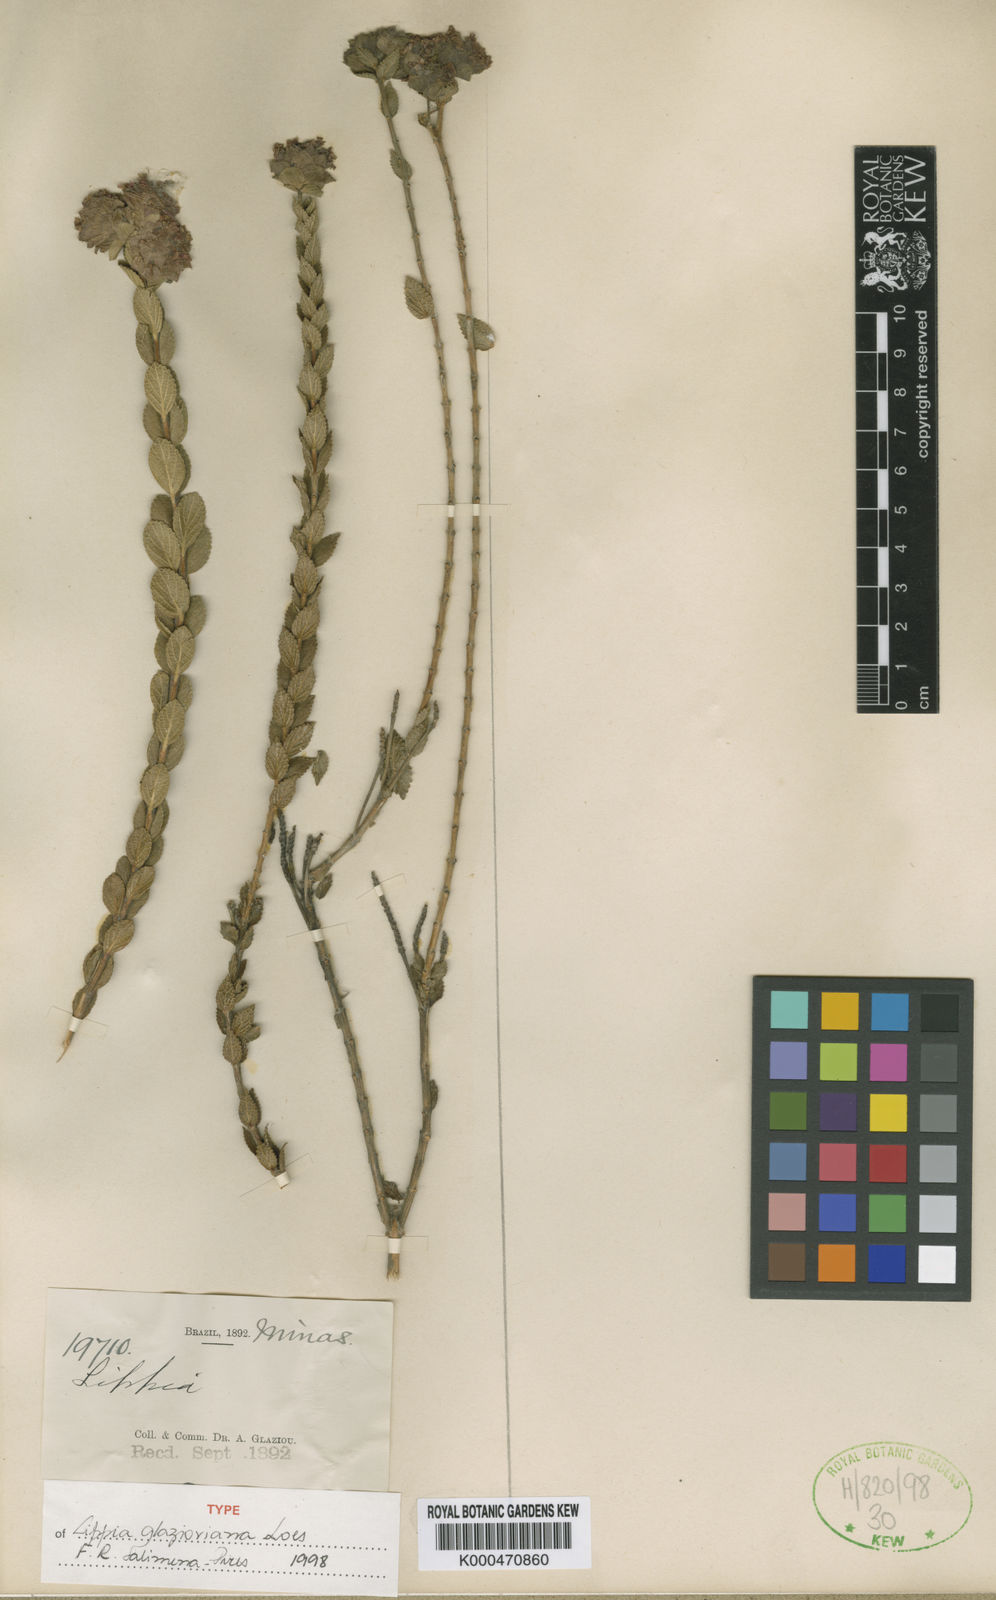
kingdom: Plantae
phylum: Tracheophyta
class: Magnoliopsida
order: Lamiales
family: Verbenaceae
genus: Lippia
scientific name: Lippia glazioviana
